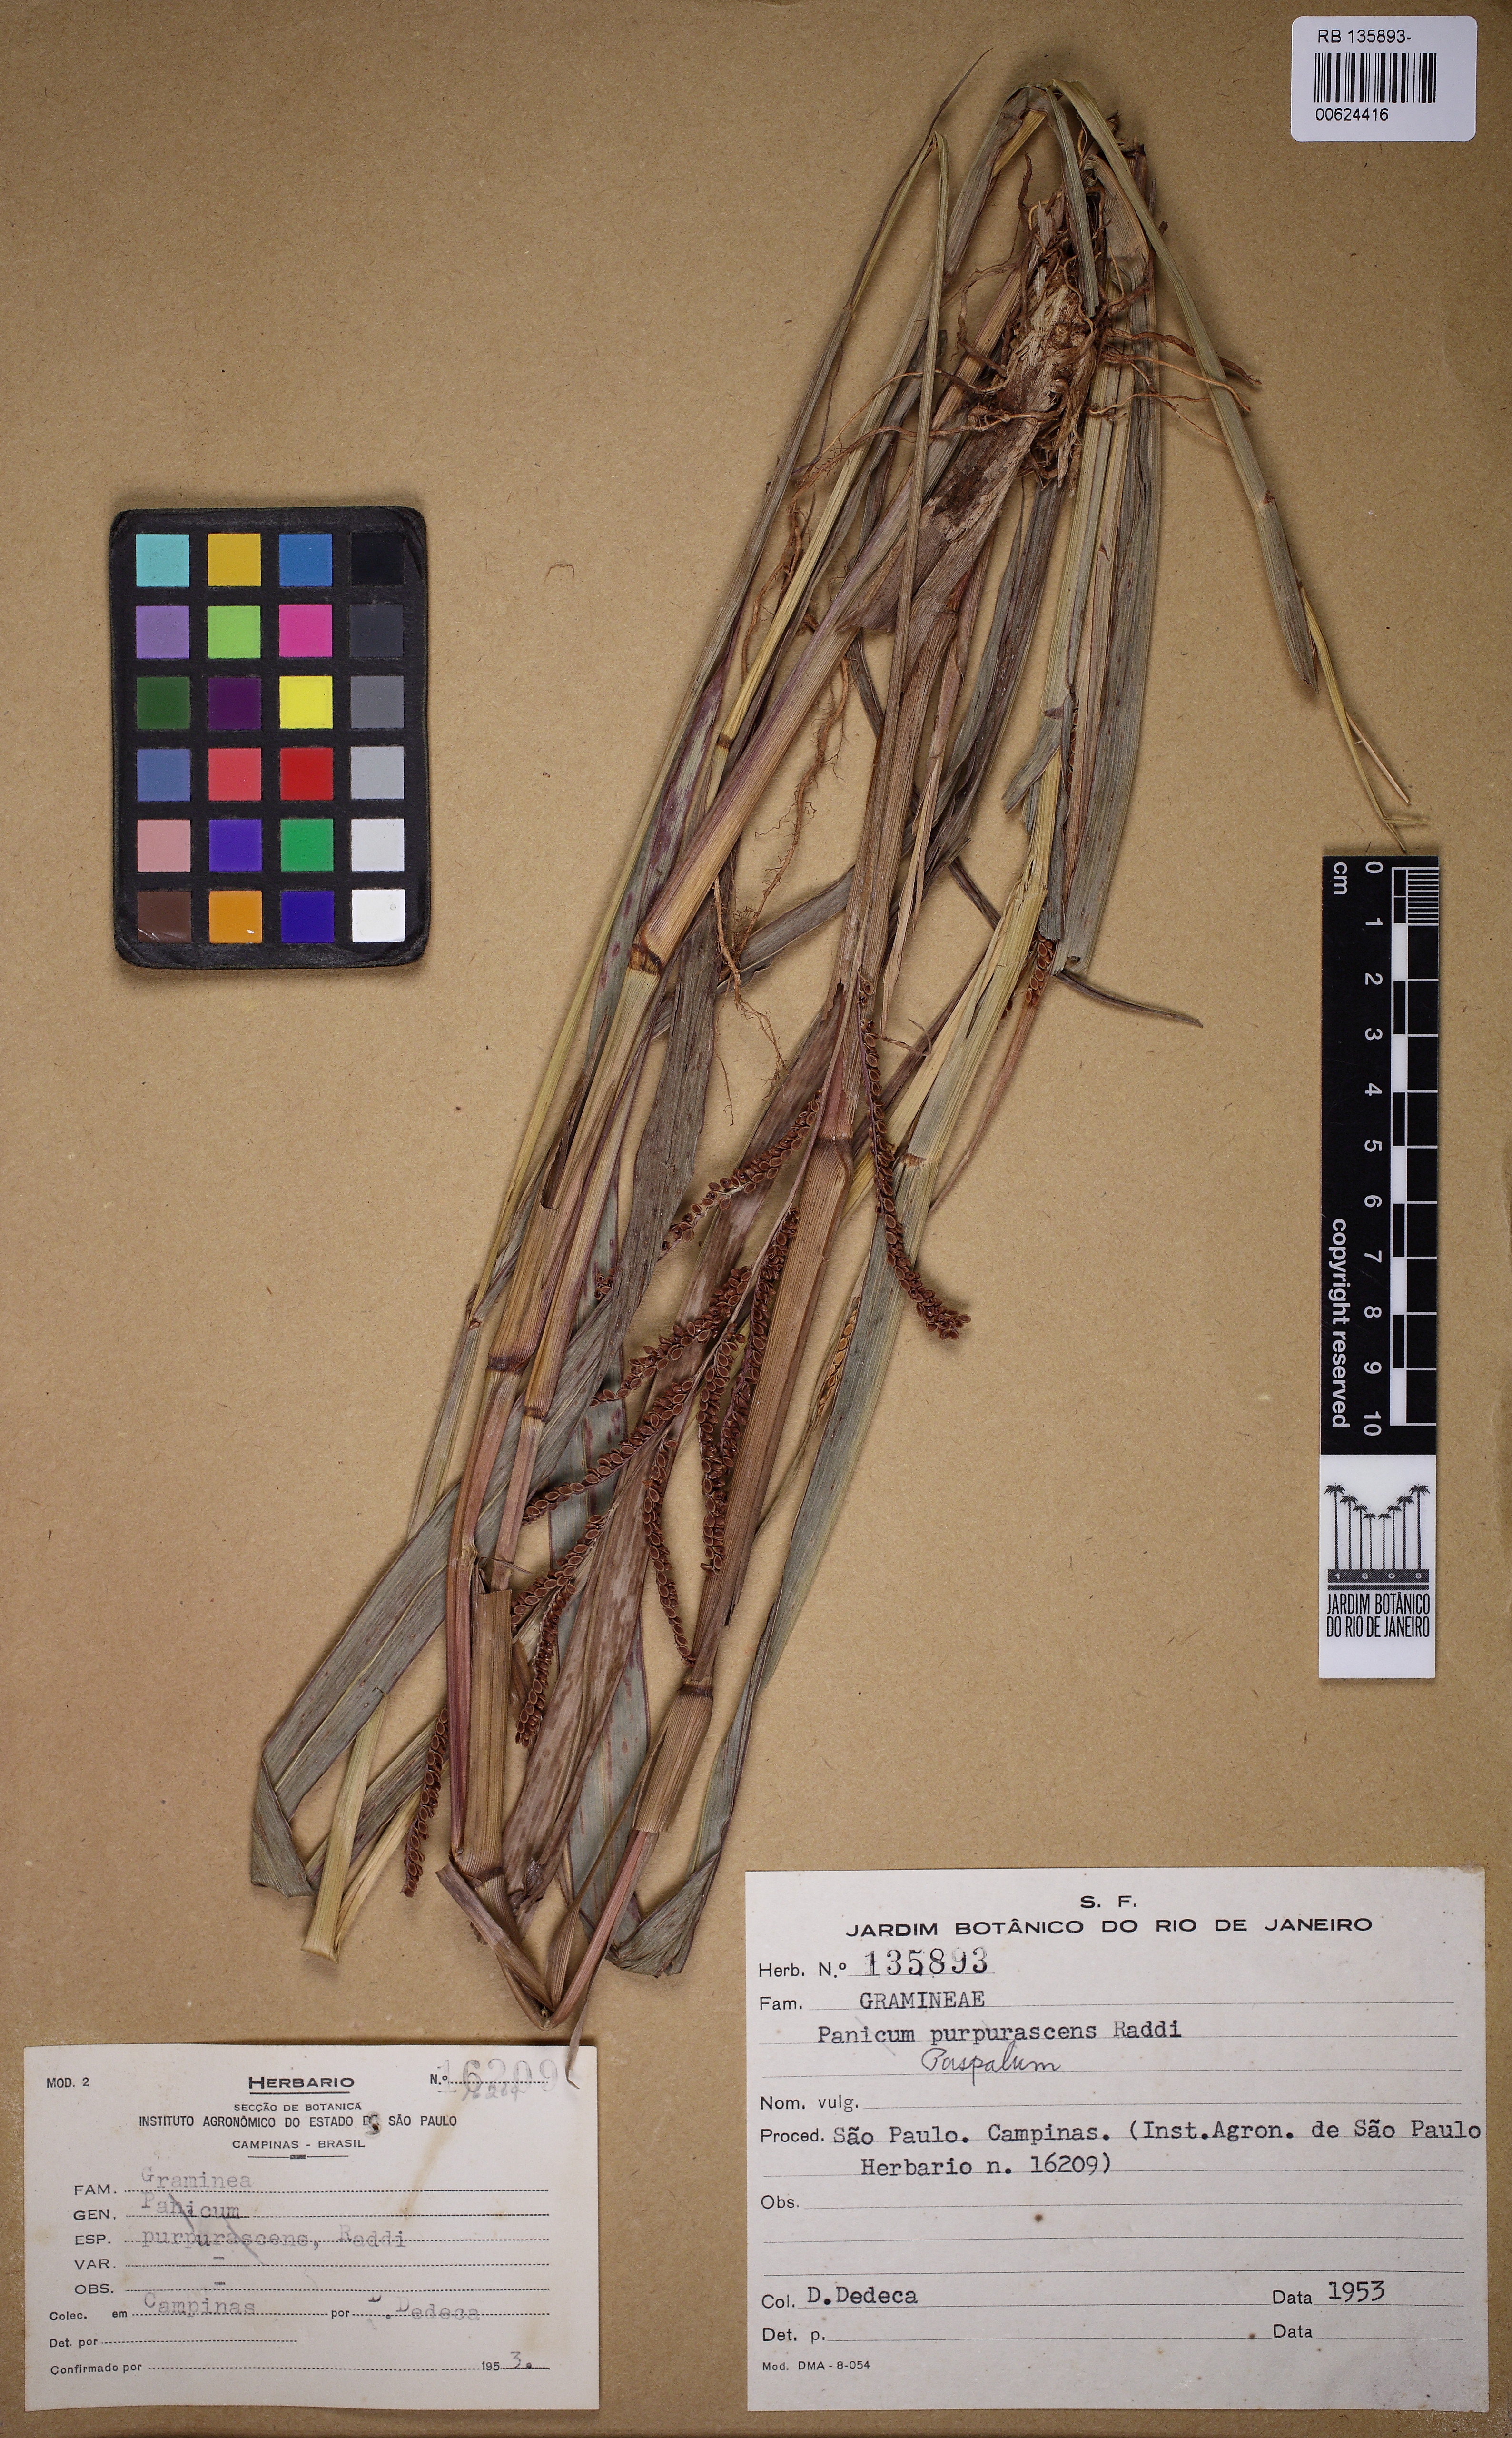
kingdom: Plantae
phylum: Tracheophyta
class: Liliopsida
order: Poales
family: Poaceae
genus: Paspalum
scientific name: Paspalum
